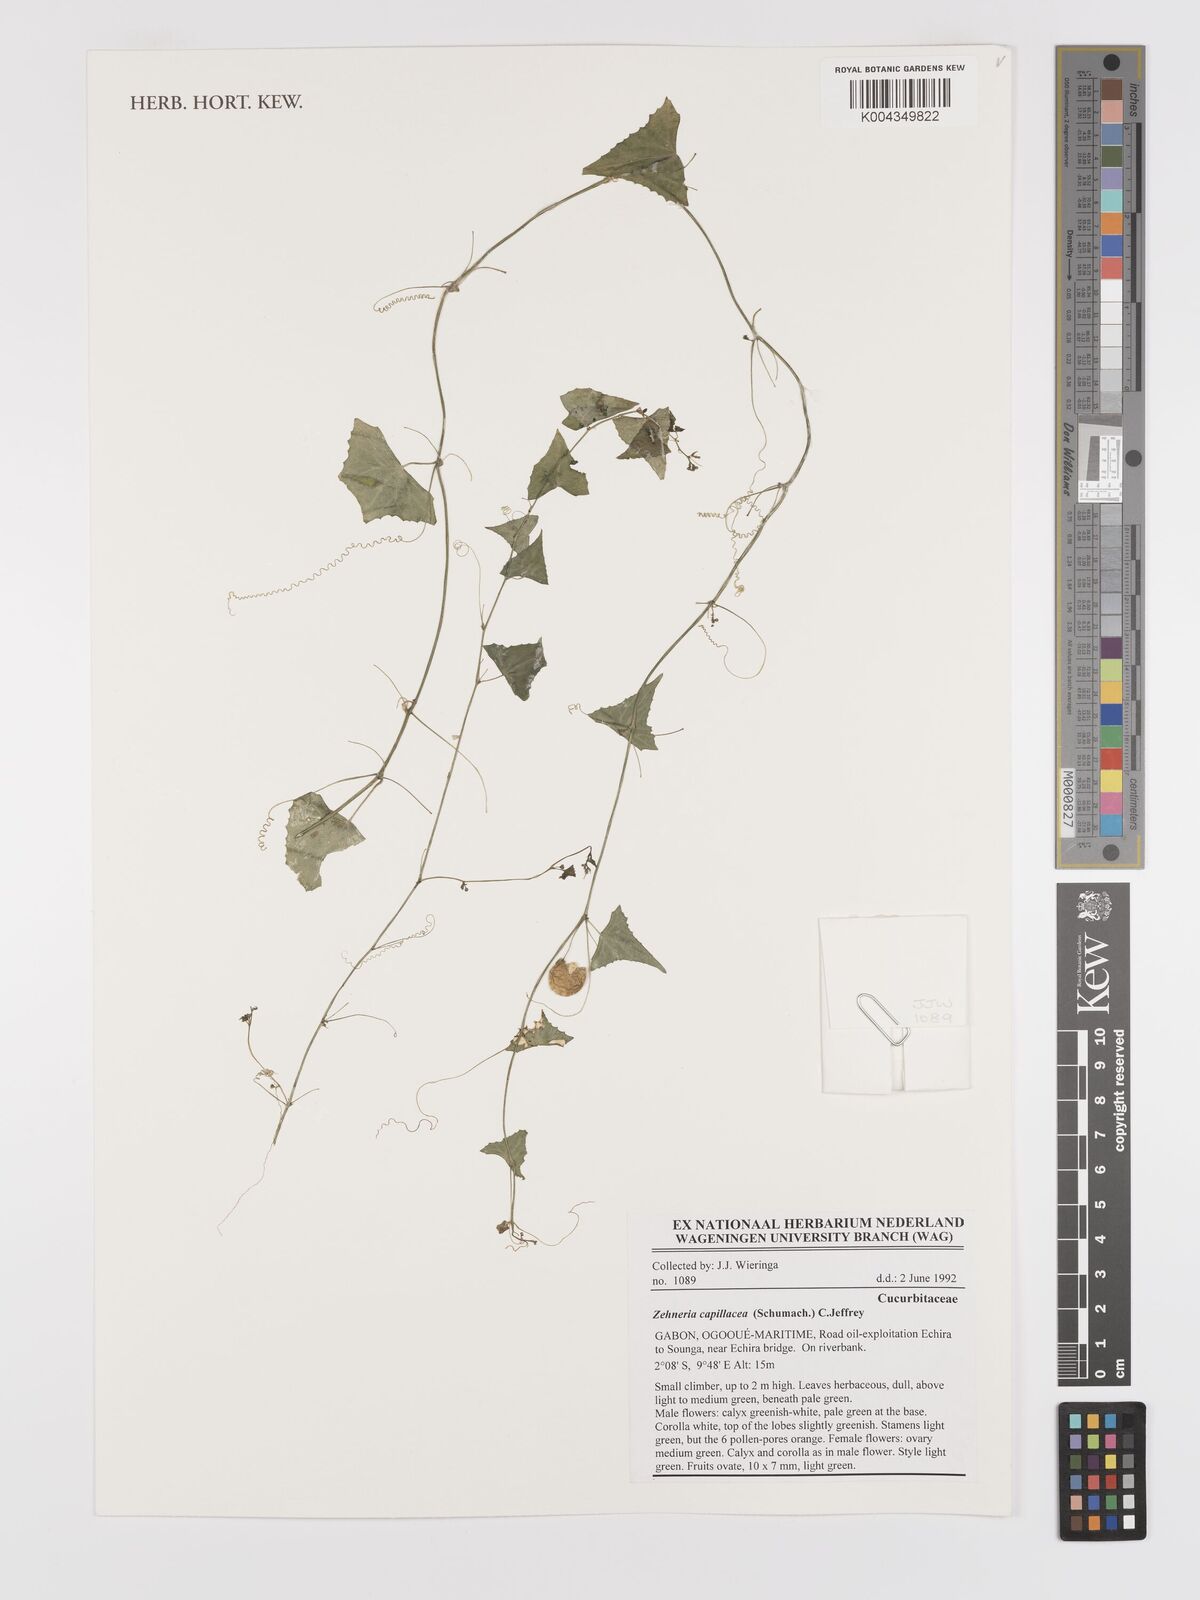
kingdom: Plantae
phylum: Tracheophyta
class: Magnoliopsida
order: Cucurbitales
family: Cucurbitaceae
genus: Zehneria
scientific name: Zehneria capillacea
